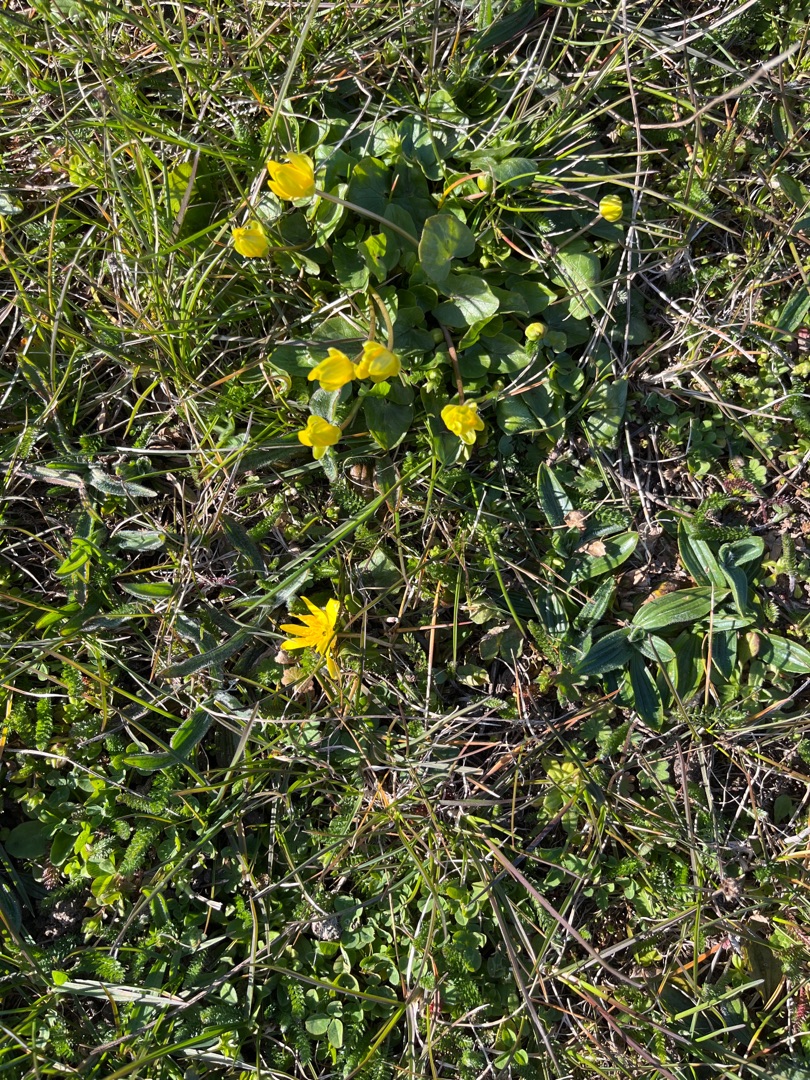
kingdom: Plantae
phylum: Tracheophyta
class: Magnoliopsida
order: Ranunculales
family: Ranunculaceae
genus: Ficaria
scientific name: Ficaria verna
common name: Vorterod
